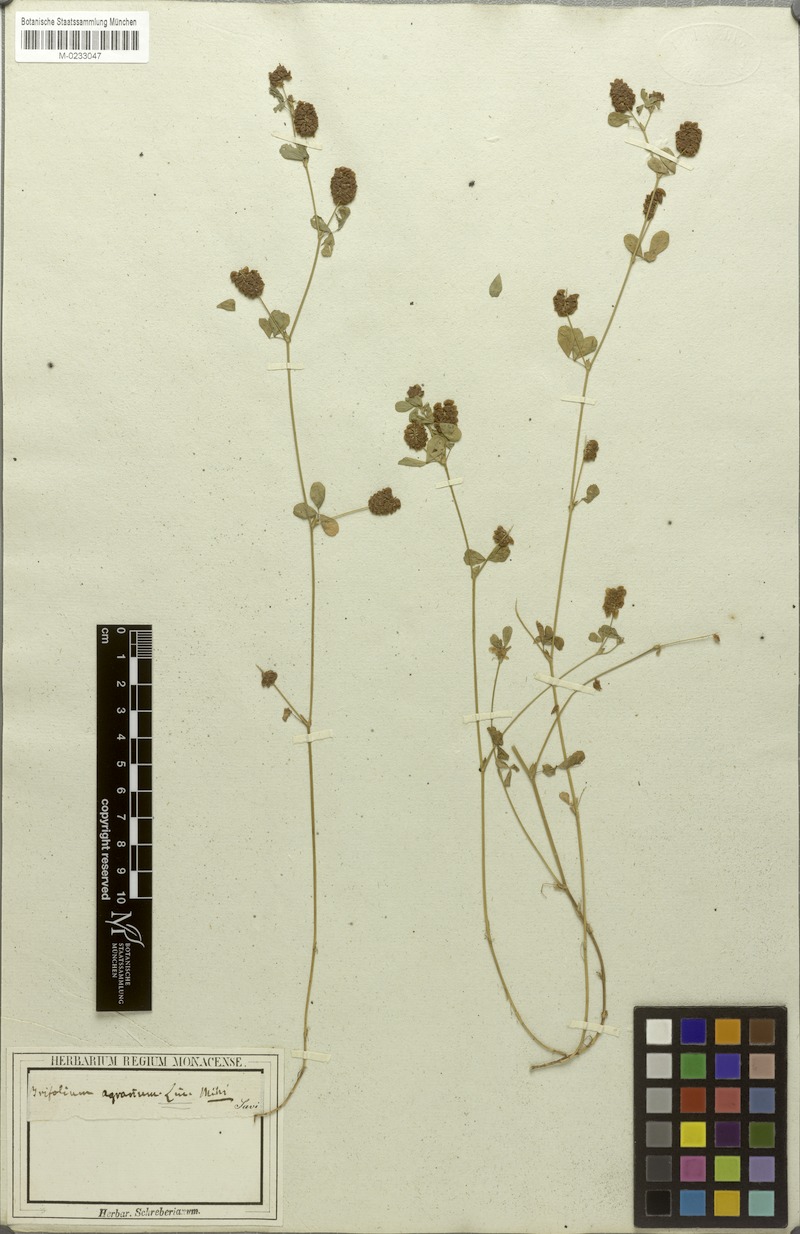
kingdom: Plantae
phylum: Tracheophyta
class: Magnoliopsida
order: Fabales
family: Fabaceae
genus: Trifolium
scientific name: Trifolium campestre
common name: Field clover
